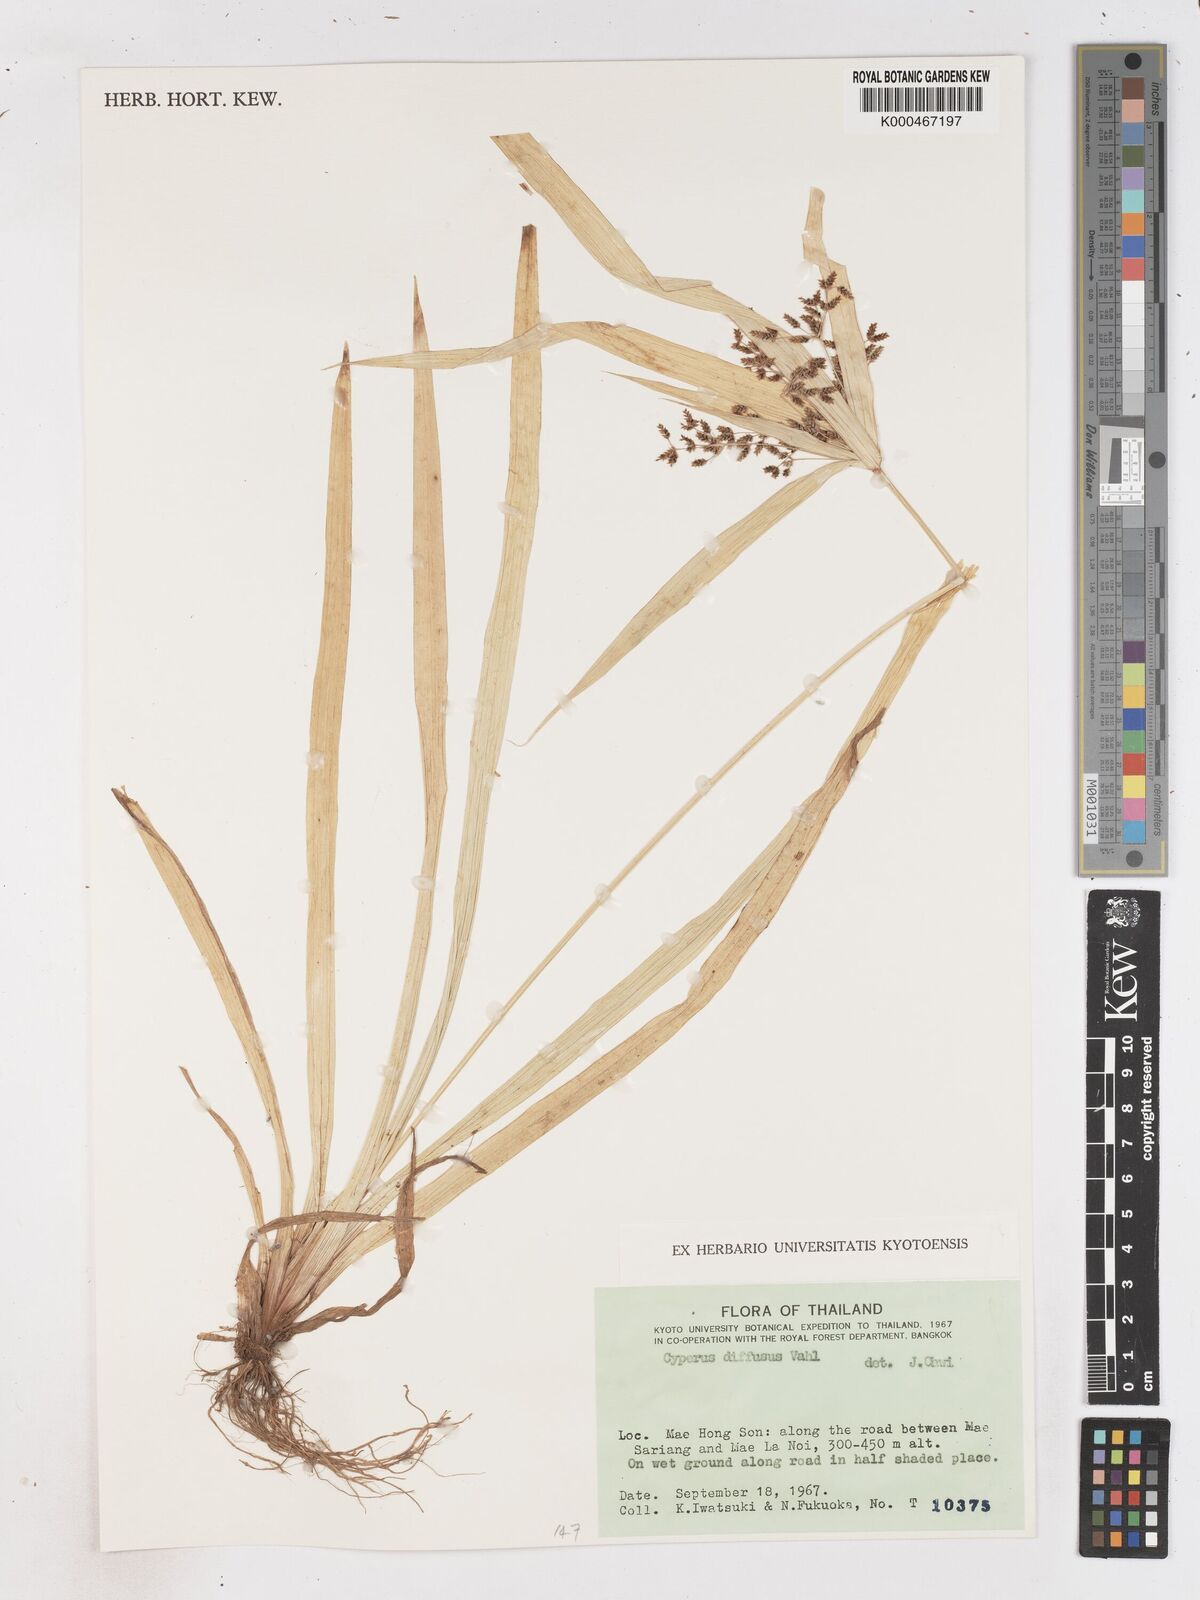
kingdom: Plantae
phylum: Tracheophyta
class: Liliopsida
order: Poales
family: Cyperaceae
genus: Cyperus
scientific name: Cyperus diffusus
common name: Dwarf umbrella grass
